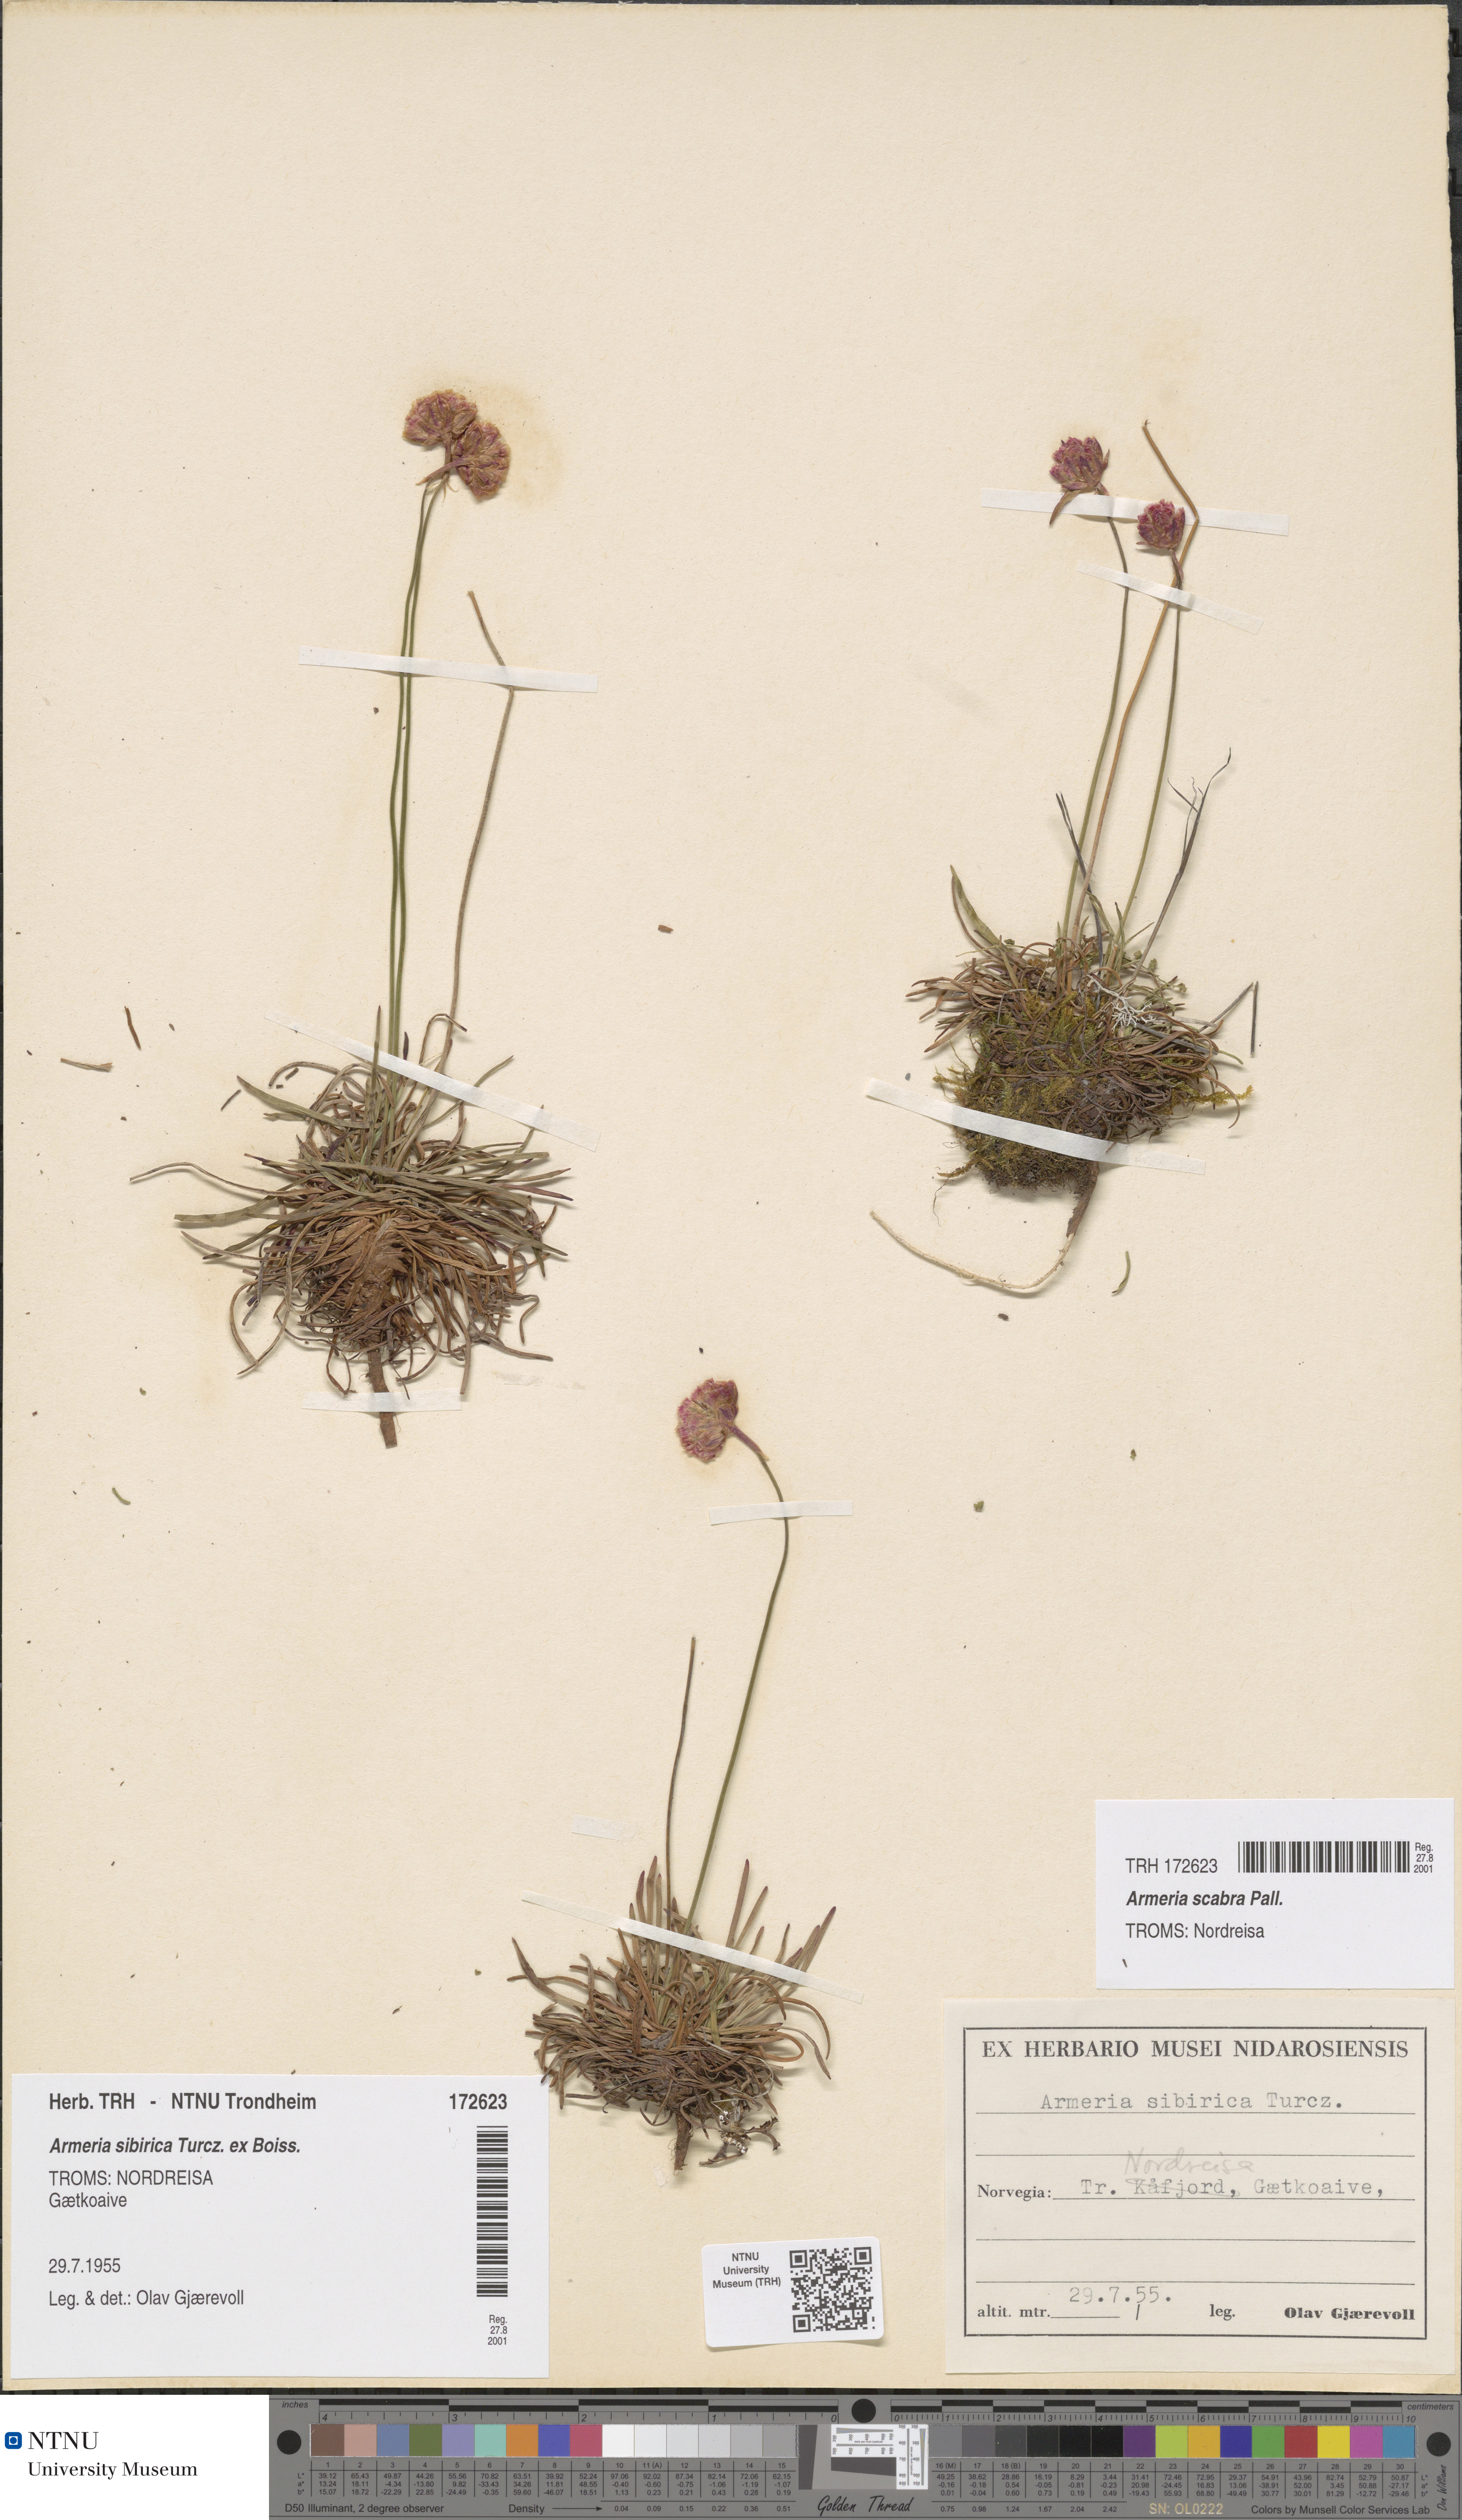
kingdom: Plantae
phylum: Tracheophyta
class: Magnoliopsida
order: Caryophyllales
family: Plumbaginaceae
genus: Armeria
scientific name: Armeria maritima
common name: Thrift
